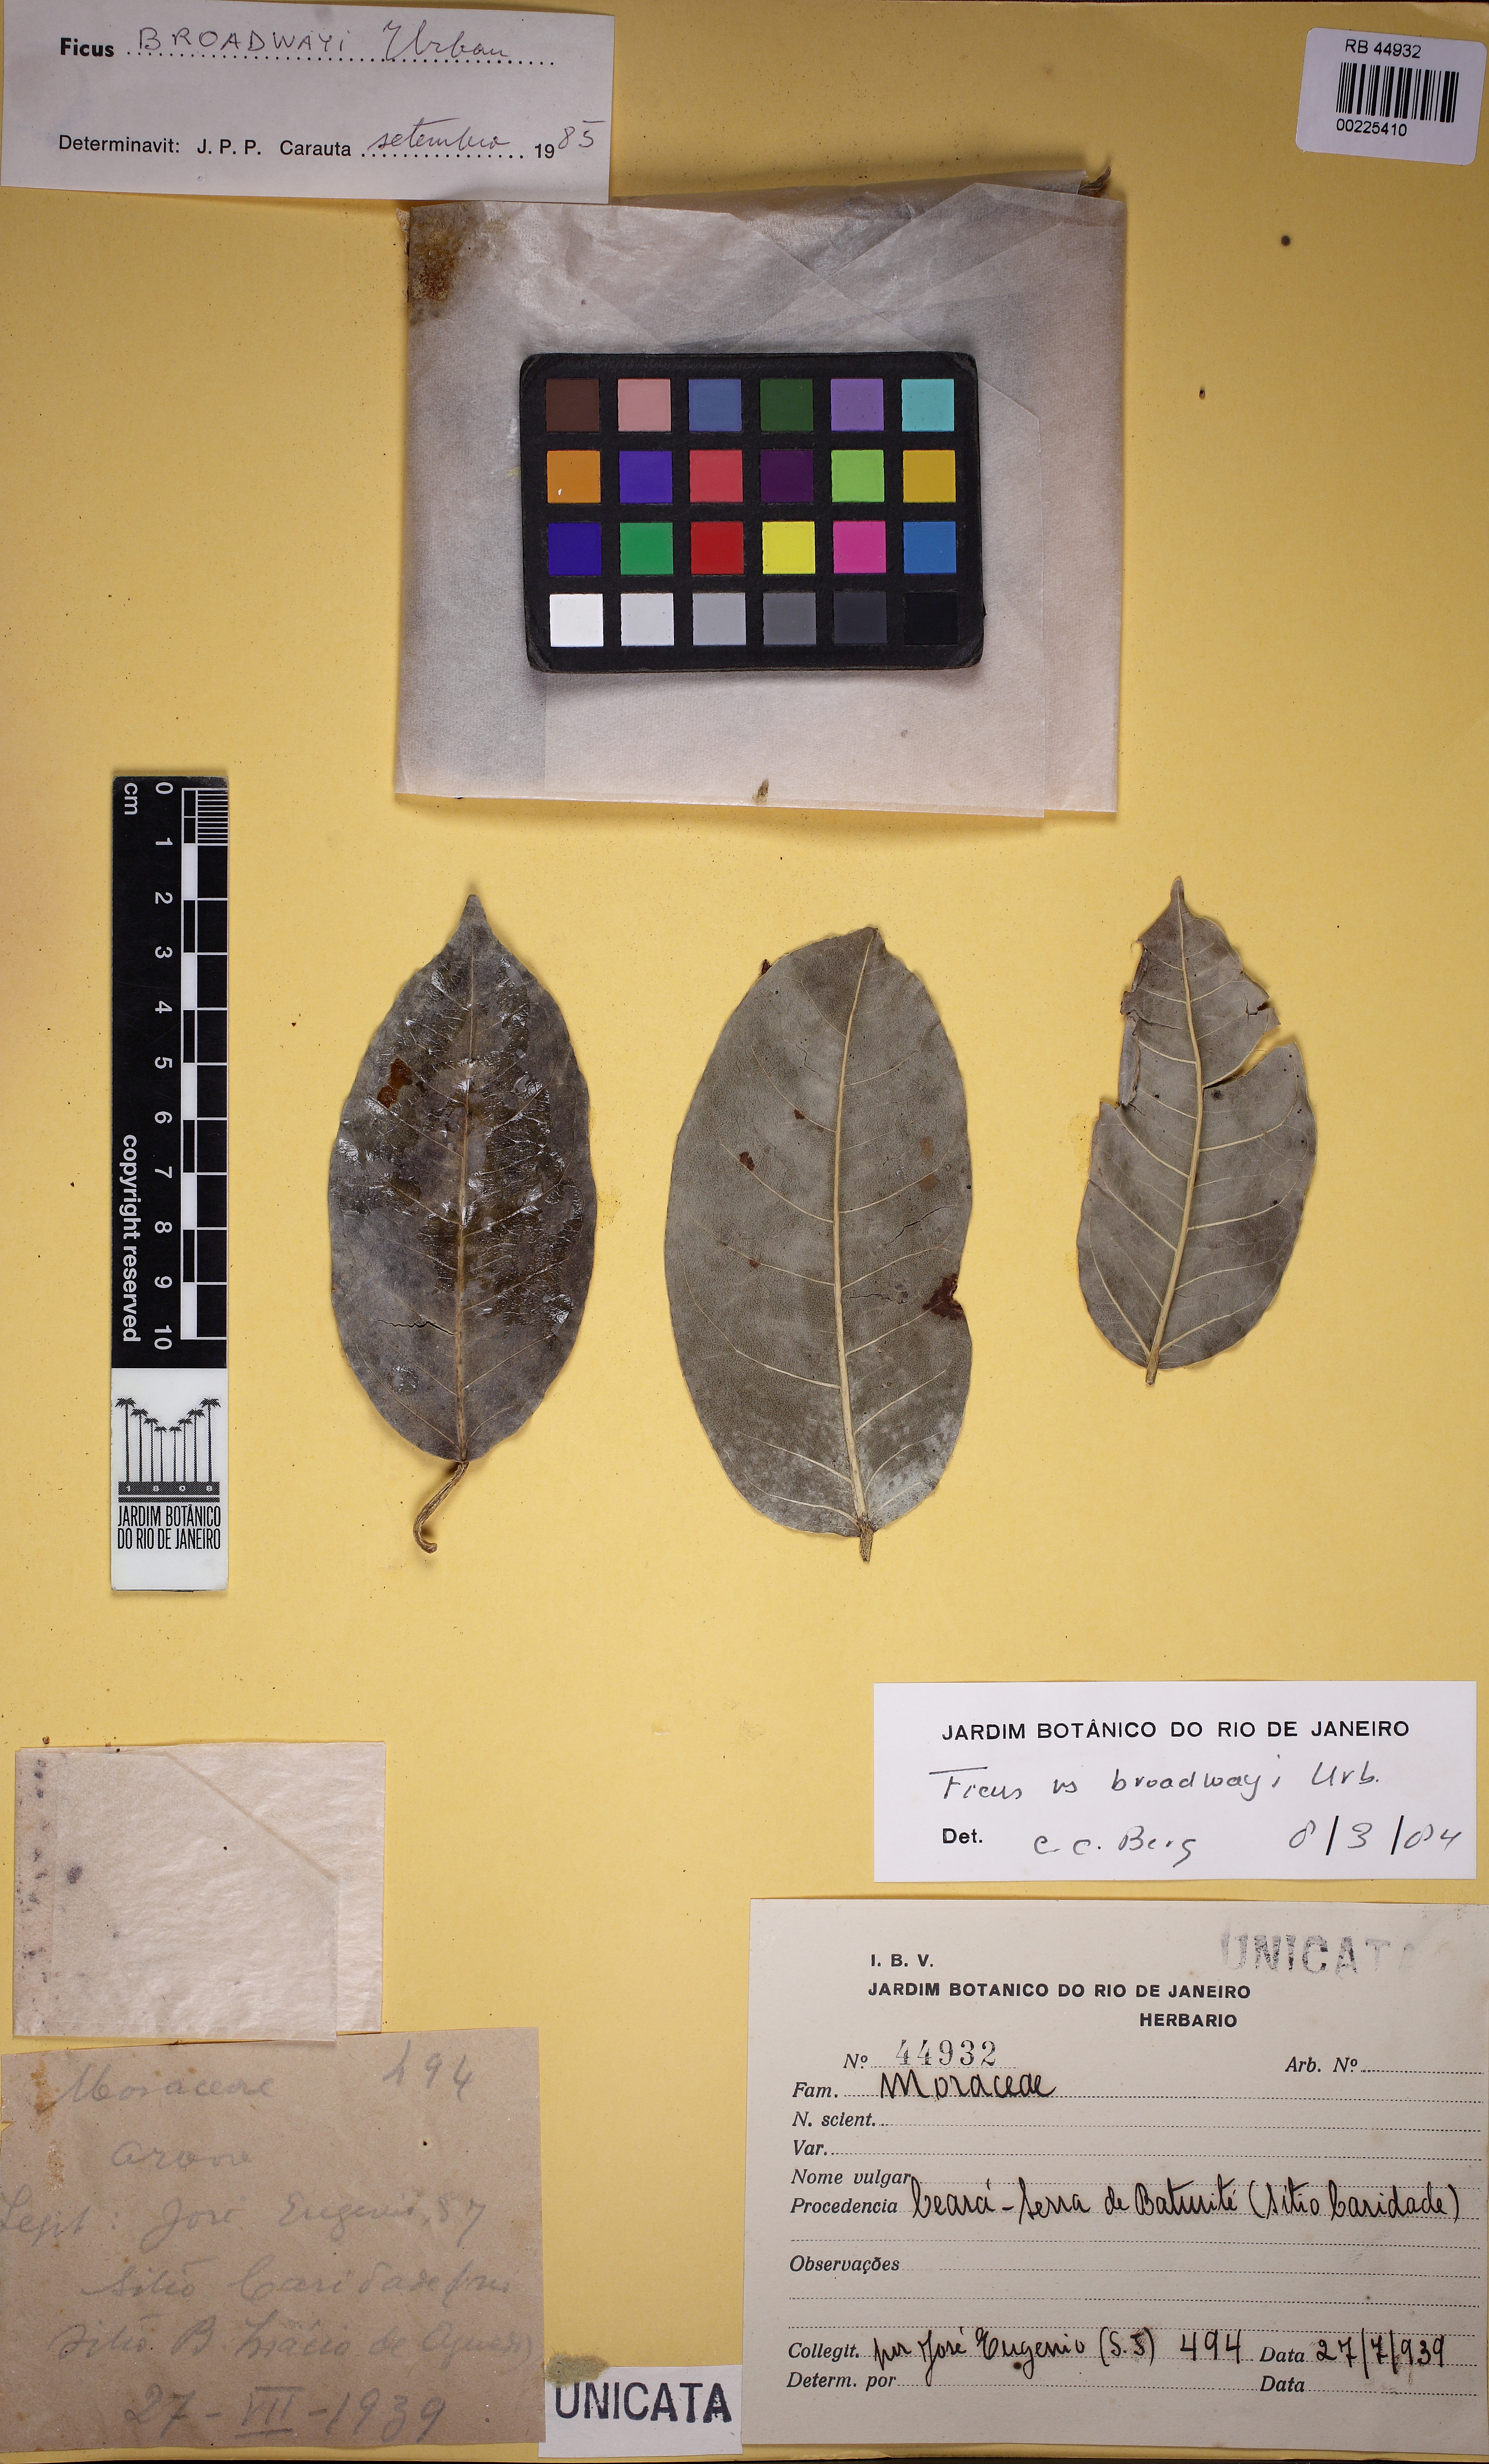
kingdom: Plantae
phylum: Tracheophyta
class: Magnoliopsida
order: Rosales
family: Moraceae
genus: Ficus
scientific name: Ficus broadwayi
